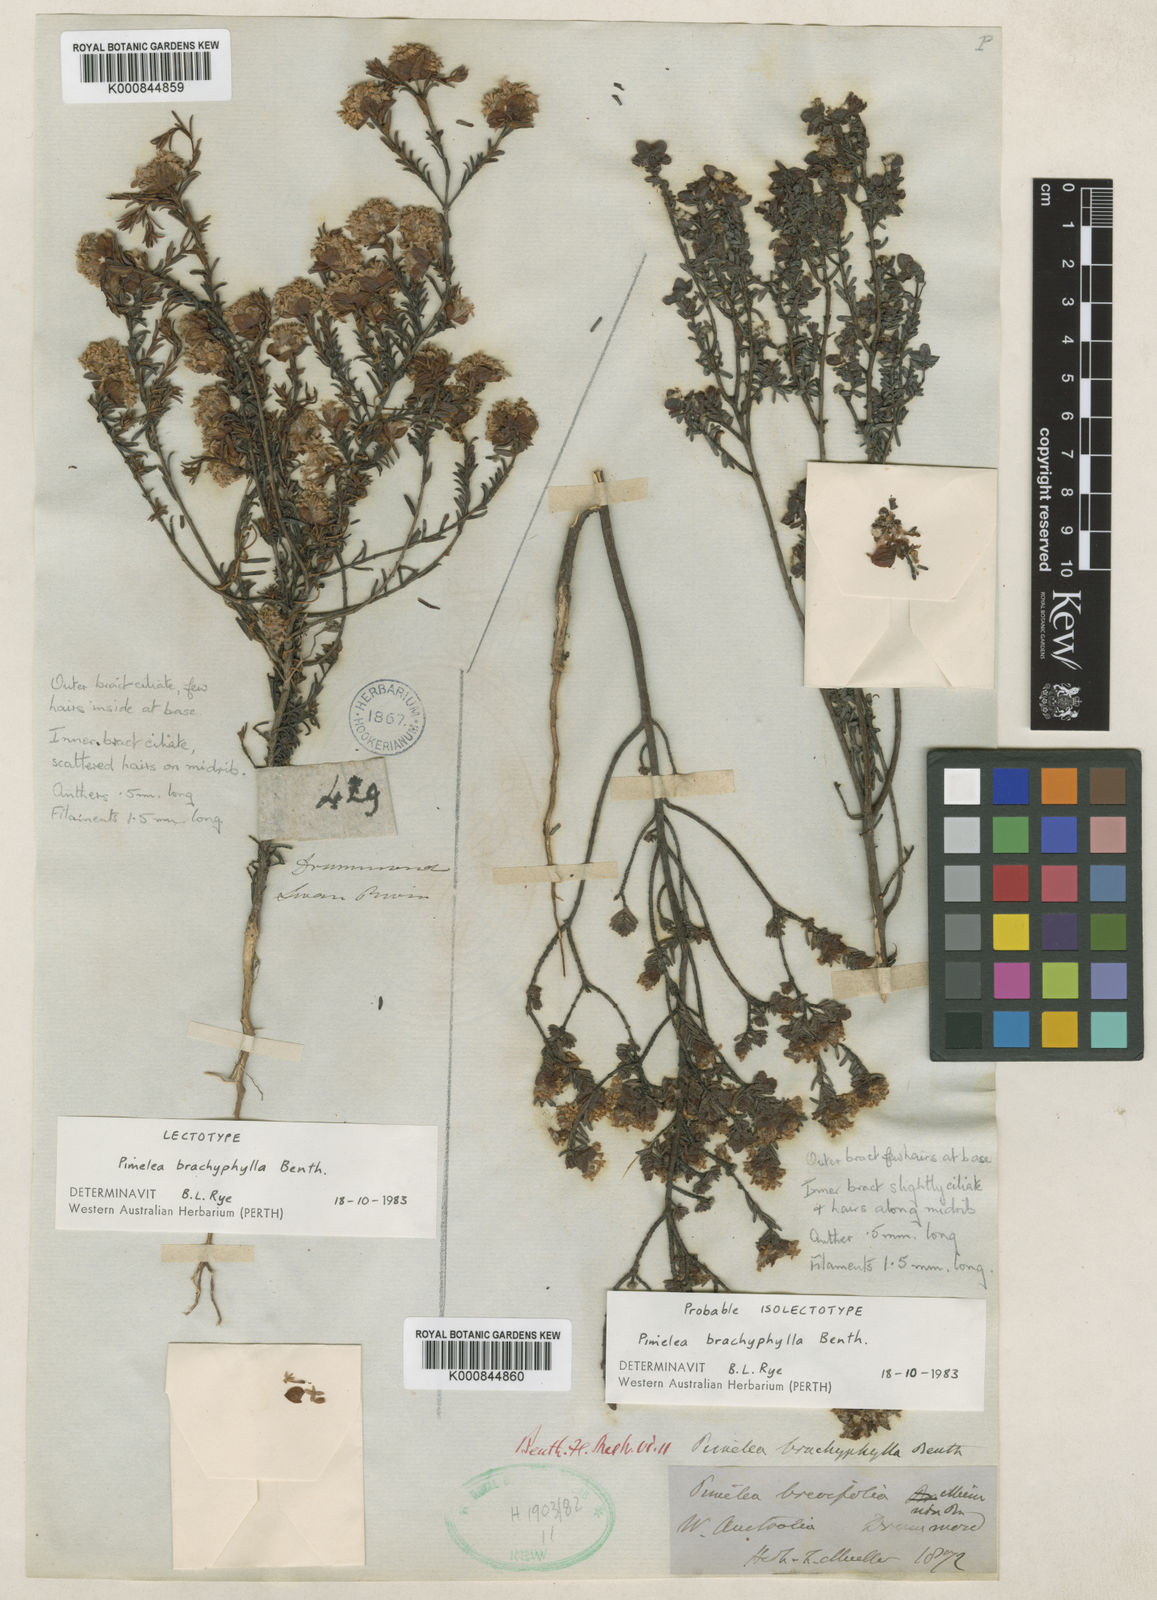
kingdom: Plantae
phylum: Tracheophyta
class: Magnoliopsida
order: Malvales
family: Thymelaeaceae
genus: Pimelea
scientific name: Pimelea brachyphylla
